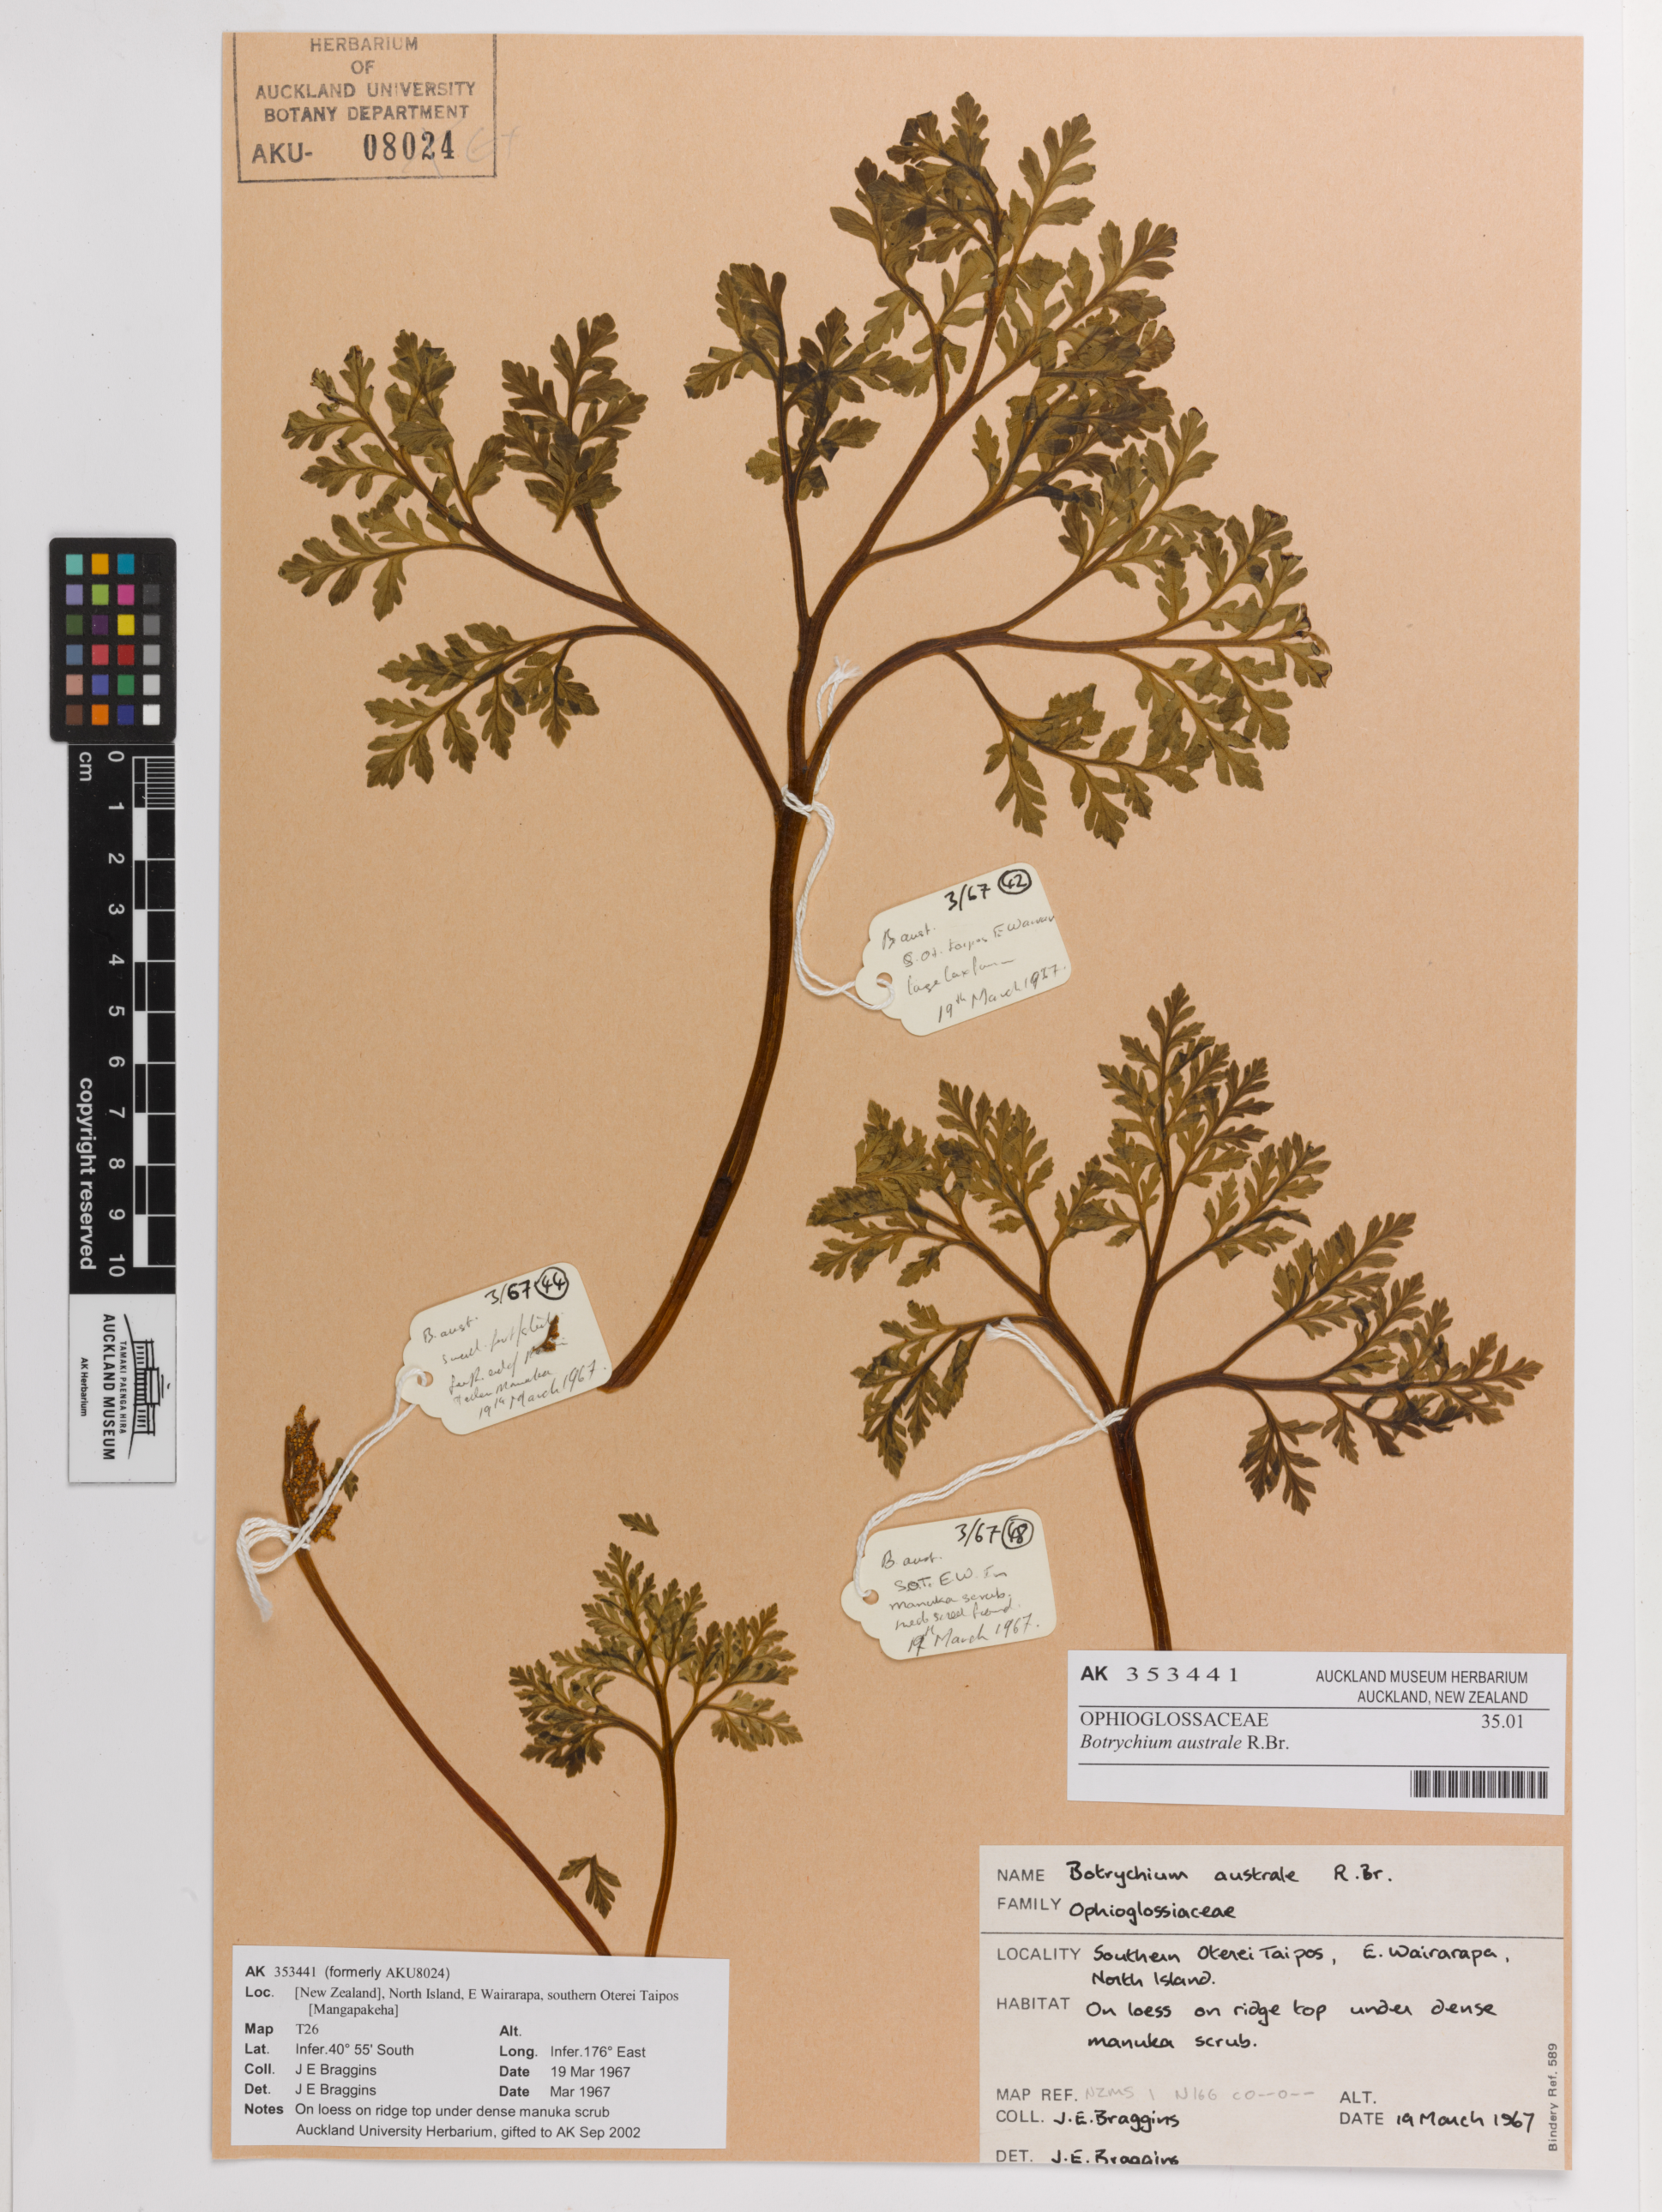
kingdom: Plantae
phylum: Tracheophyta
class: Polypodiopsida
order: Ophioglossales
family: Ophioglossaceae
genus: Sceptridium
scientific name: Sceptridium australe
